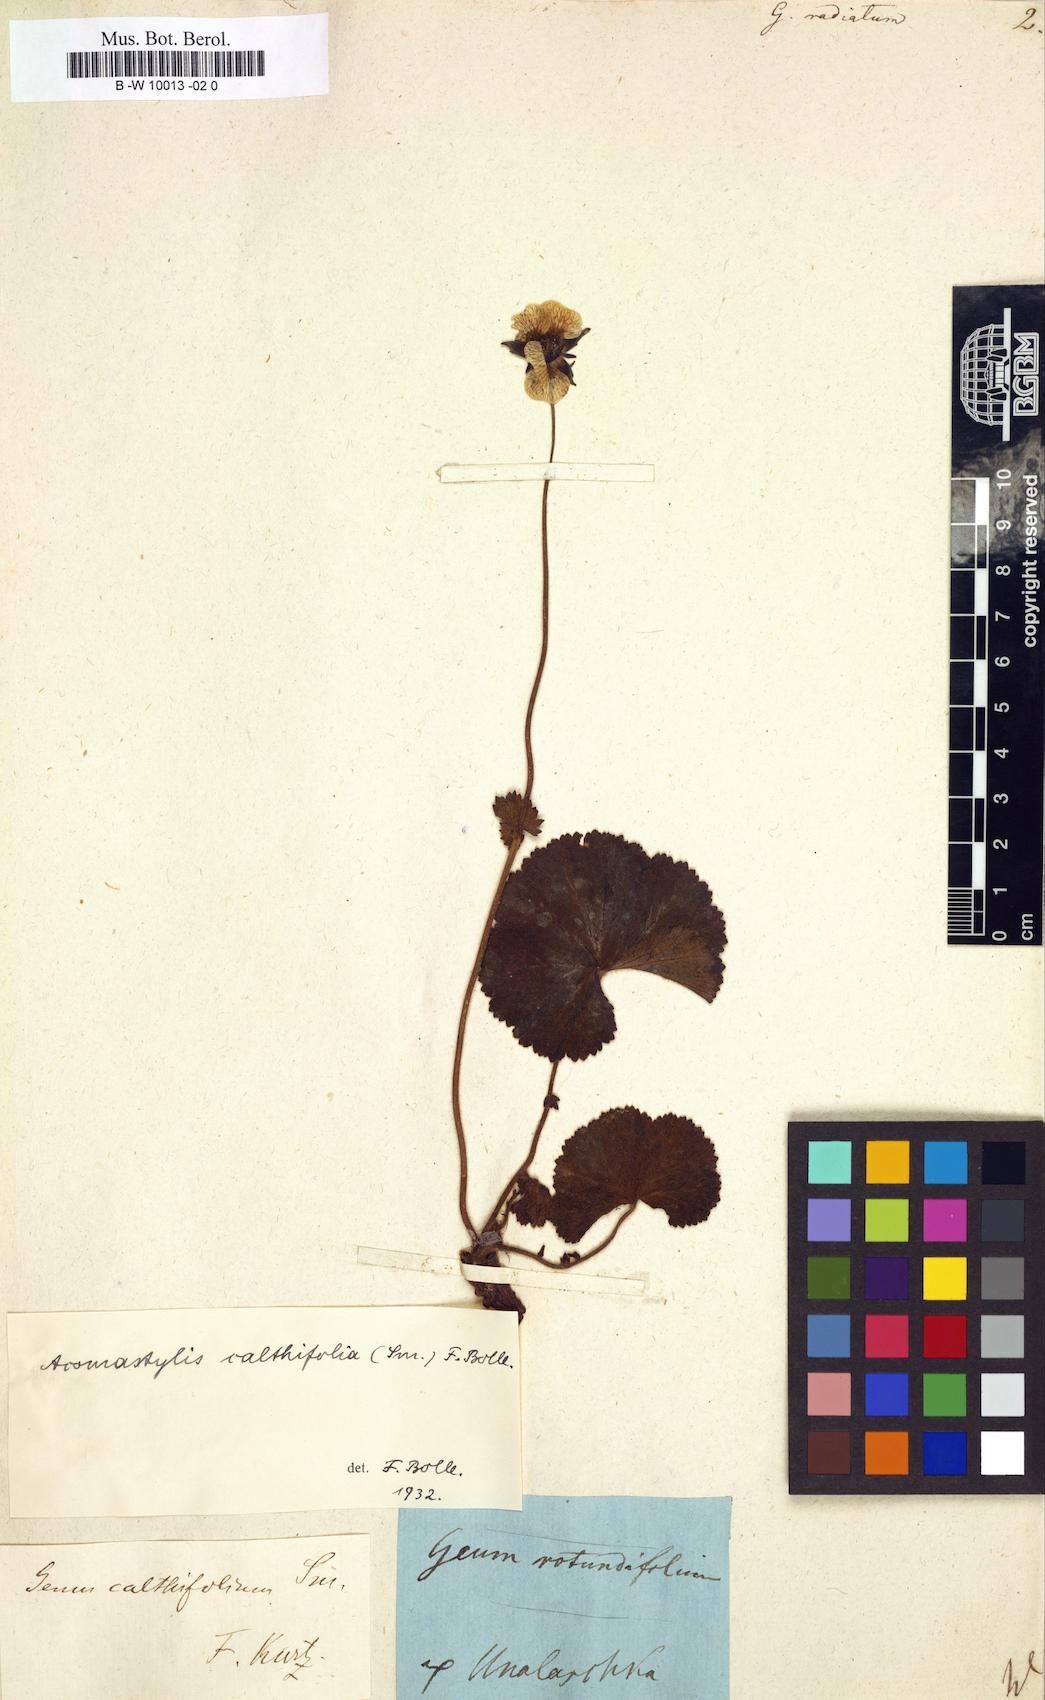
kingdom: Plantae
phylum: Tracheophyta
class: Magnoliopsida
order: Rosales
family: Rosaceae
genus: Geum
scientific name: Geum radiatum
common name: Spreaded avens
